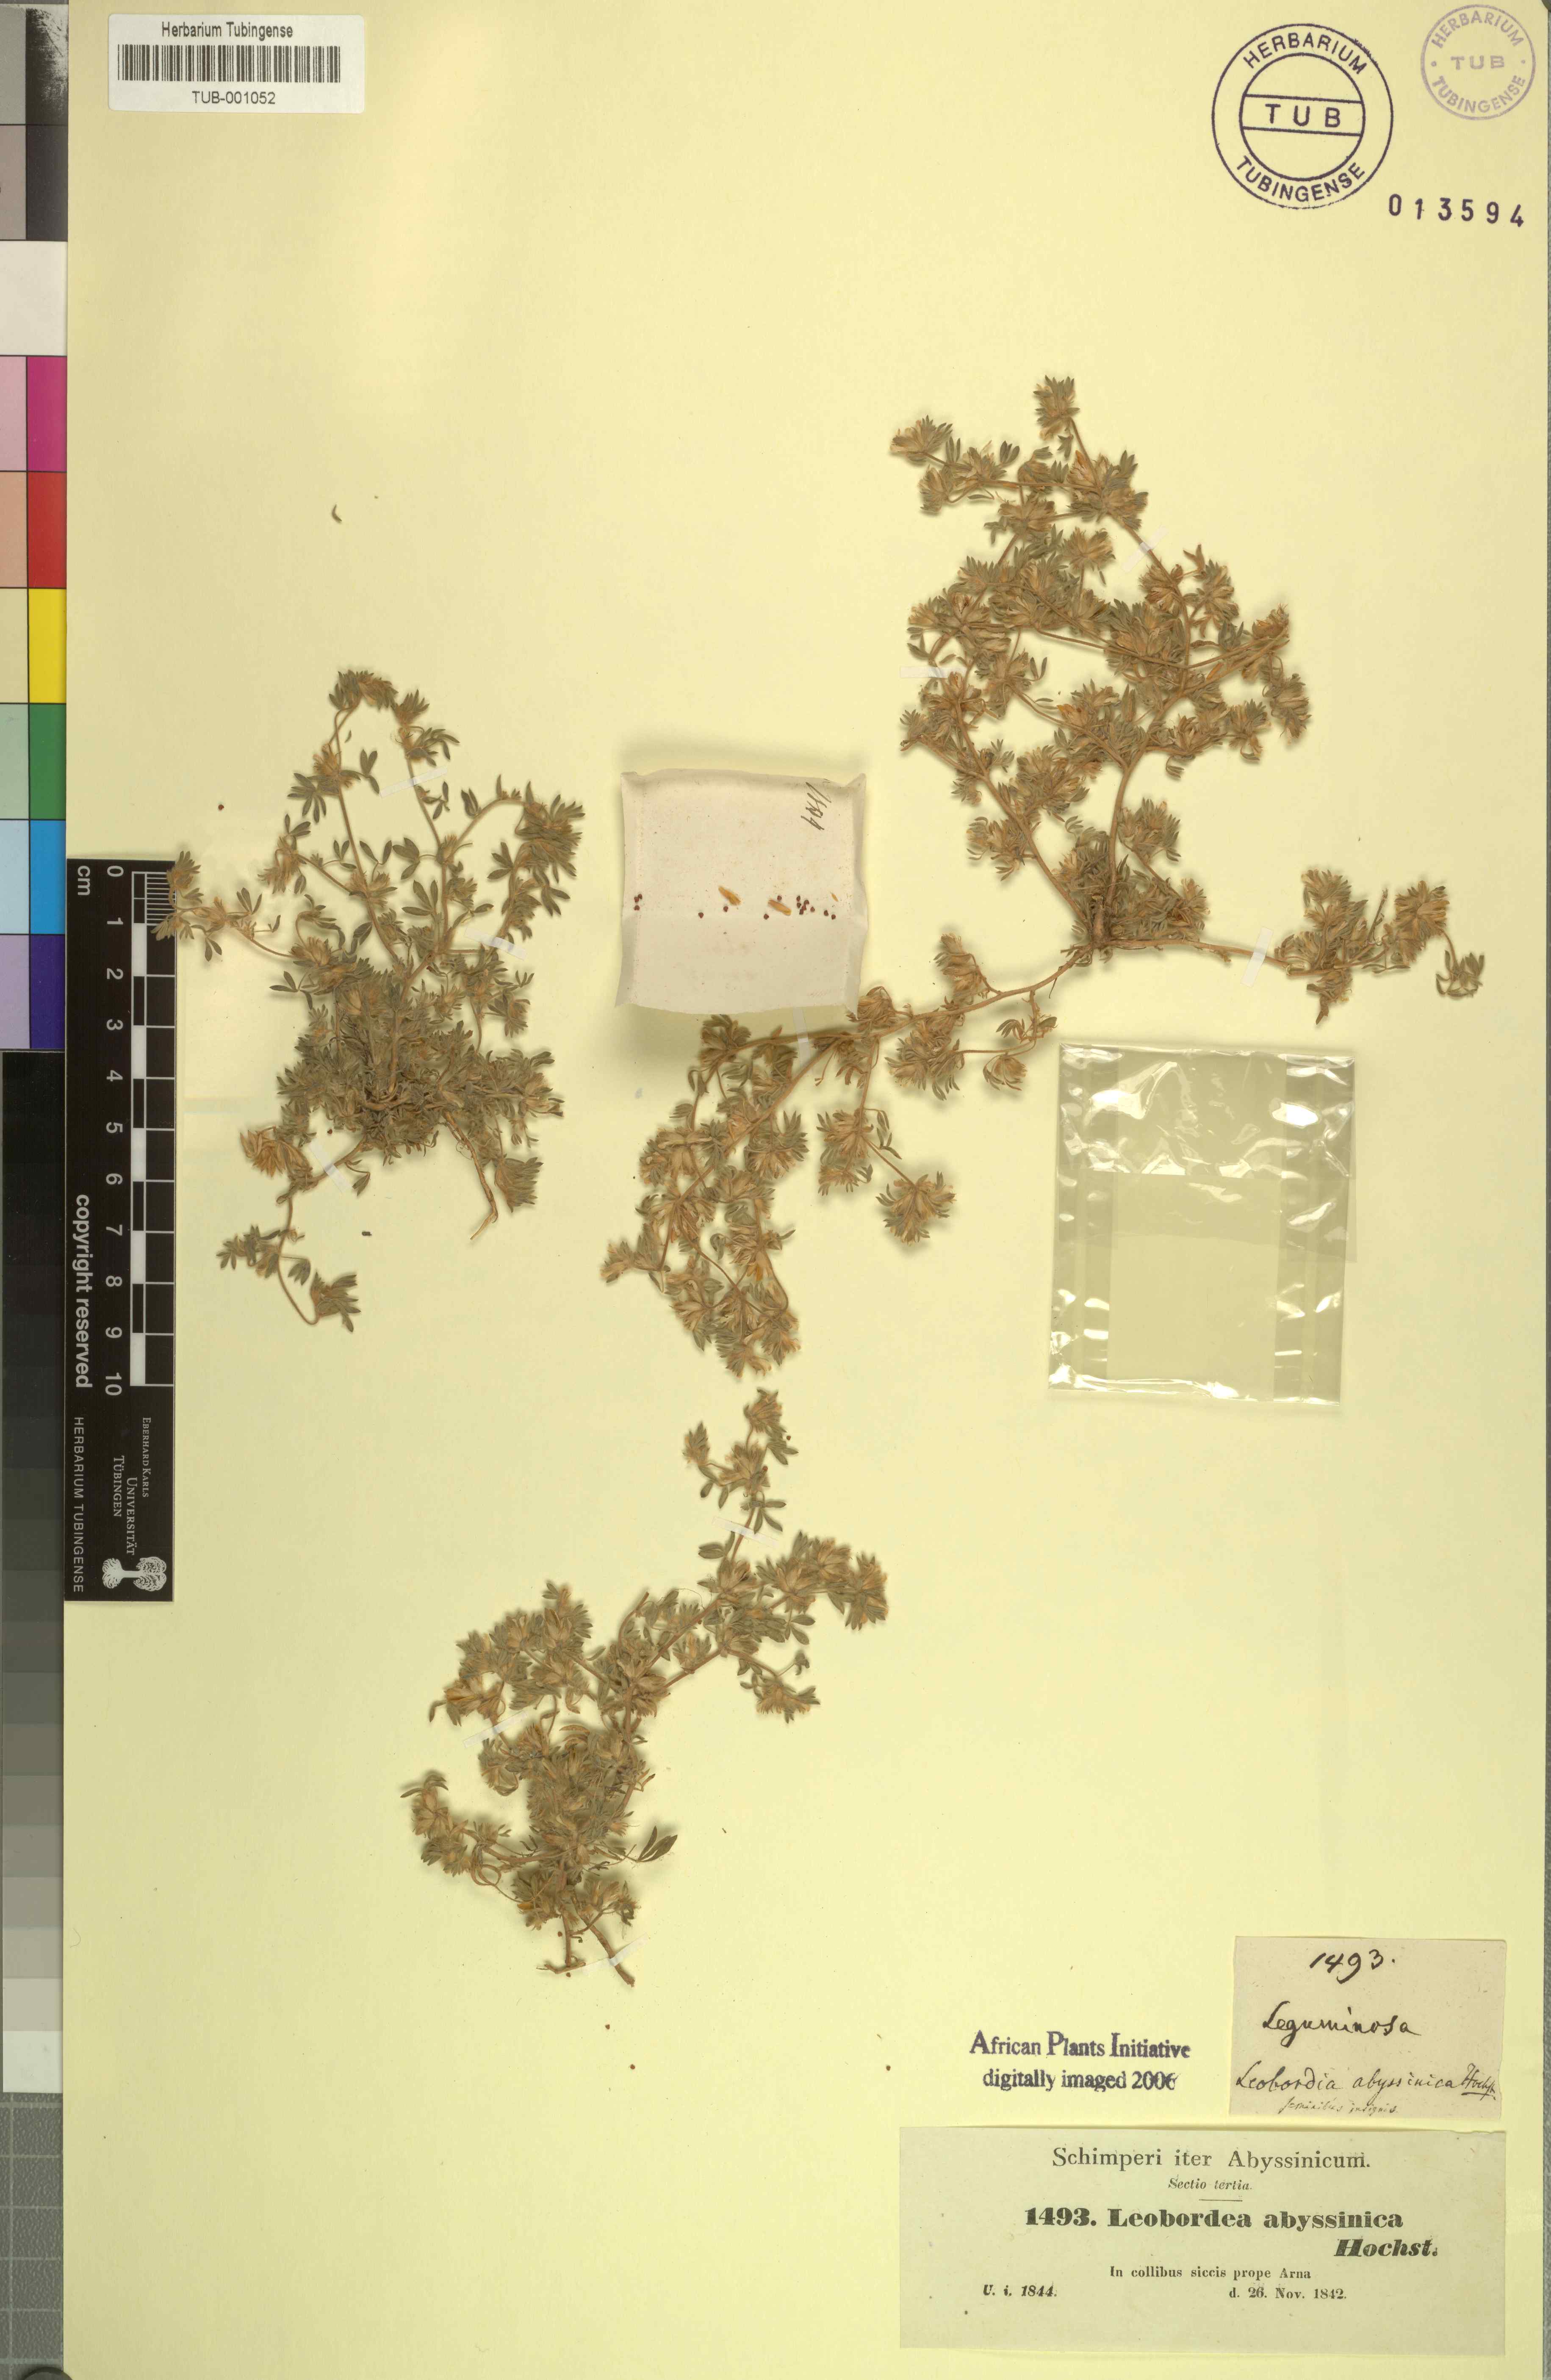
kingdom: Plantae
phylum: Tracheophyta
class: Magnoliopsida
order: Fabales
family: Fabaceae
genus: Leobordea
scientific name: Leobordea platycarpa
